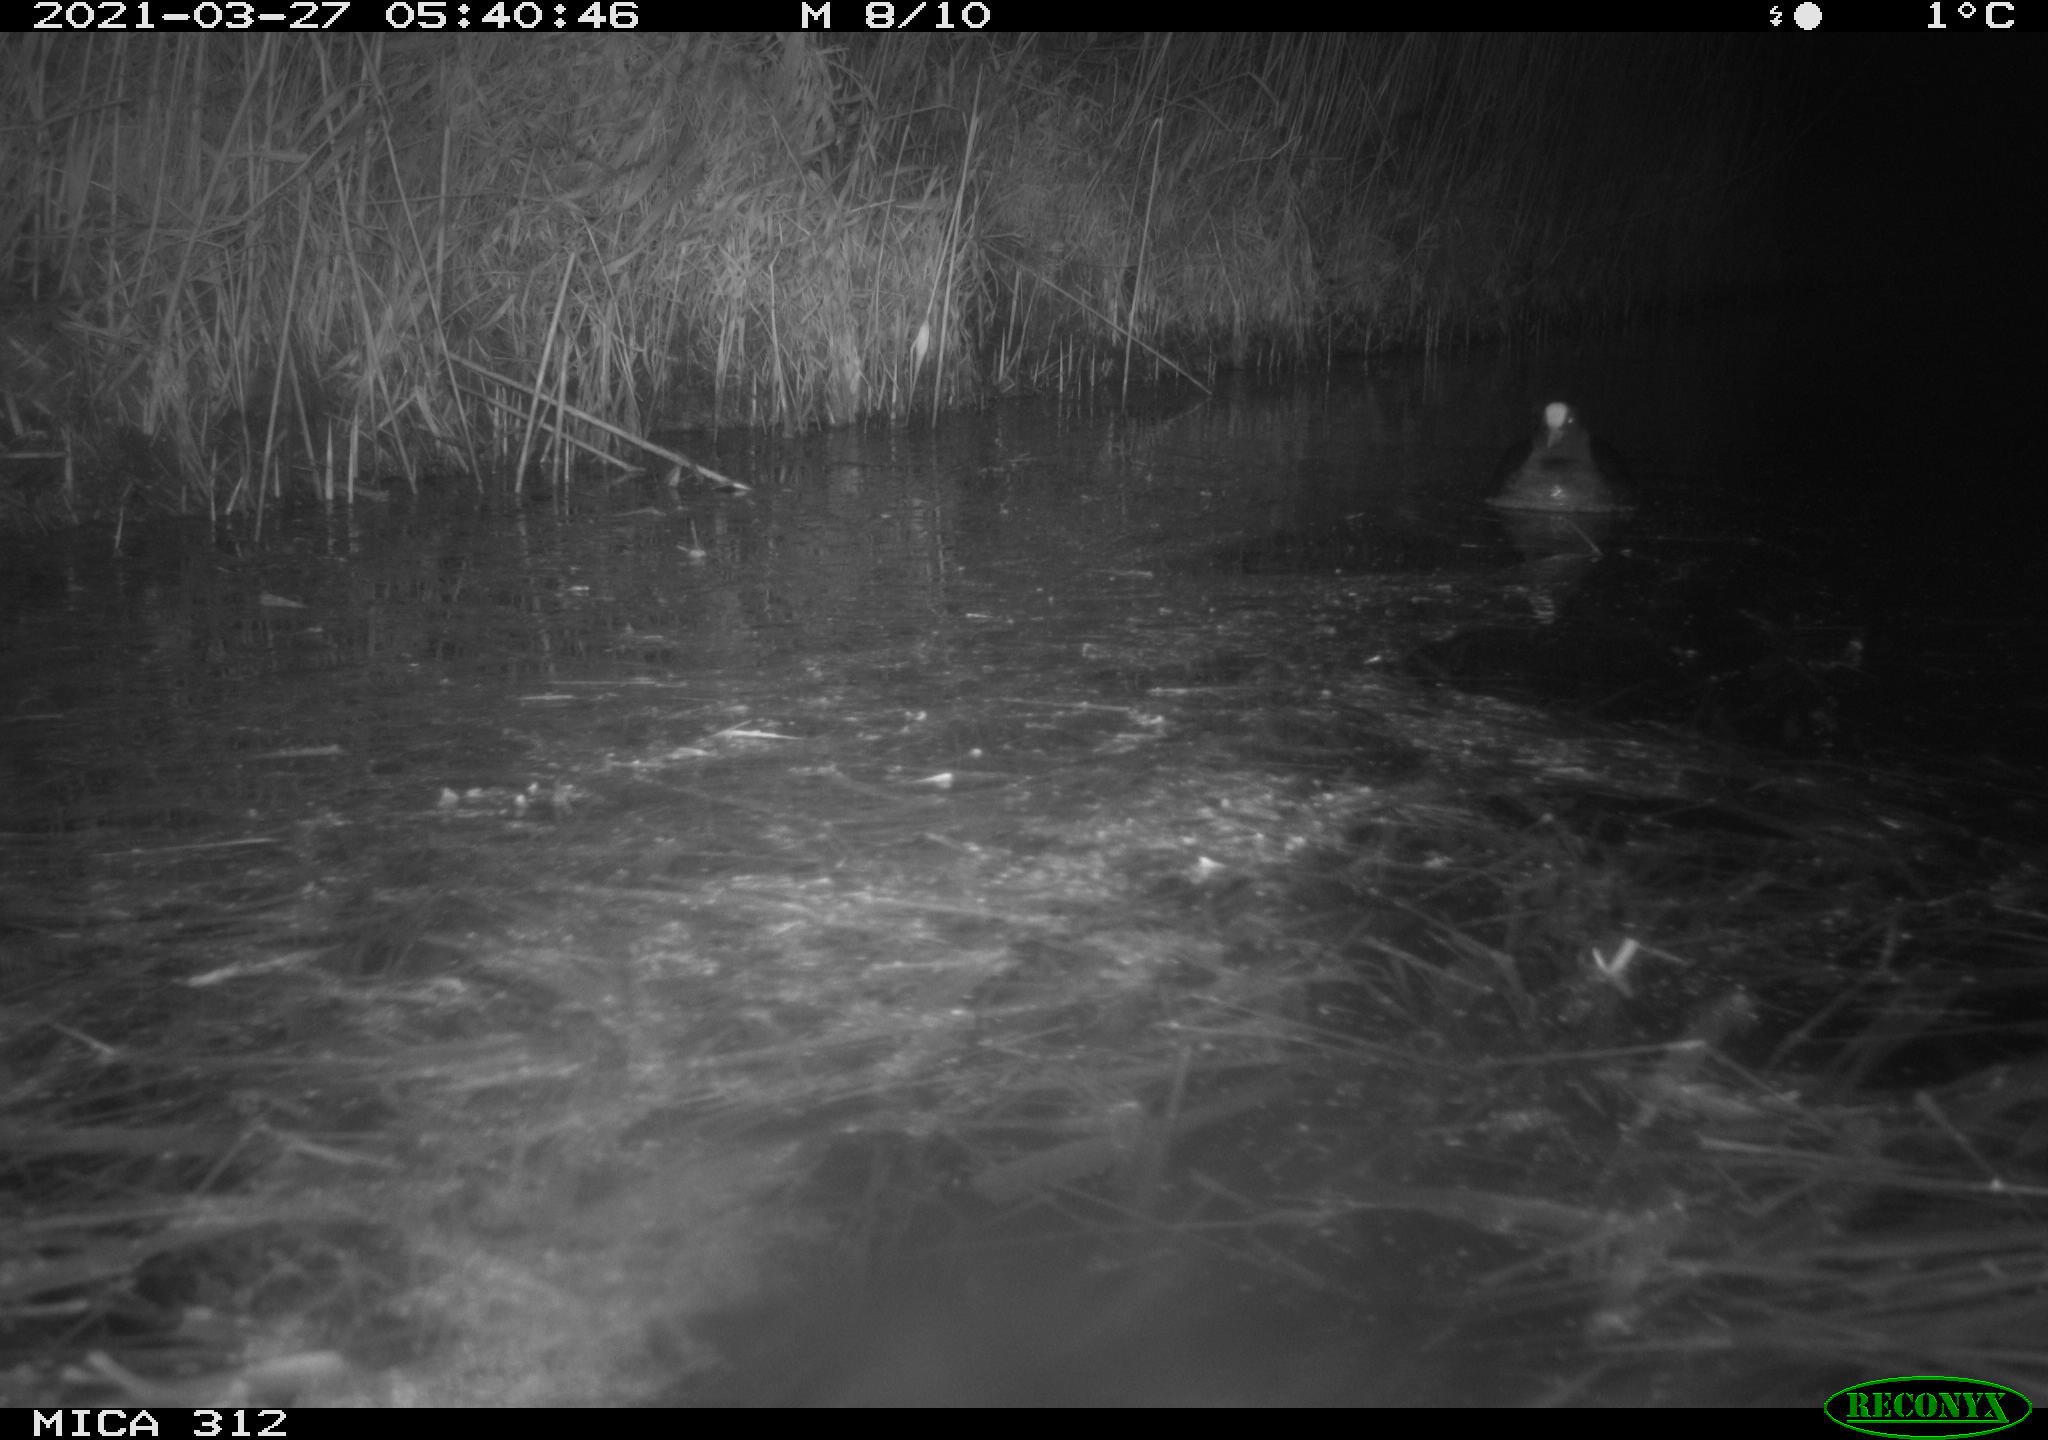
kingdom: Animalia
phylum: Chordata
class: Aves
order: Gruiformes
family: Rallidae
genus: Fulica
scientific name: Fulica atra
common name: Eurasian coot
